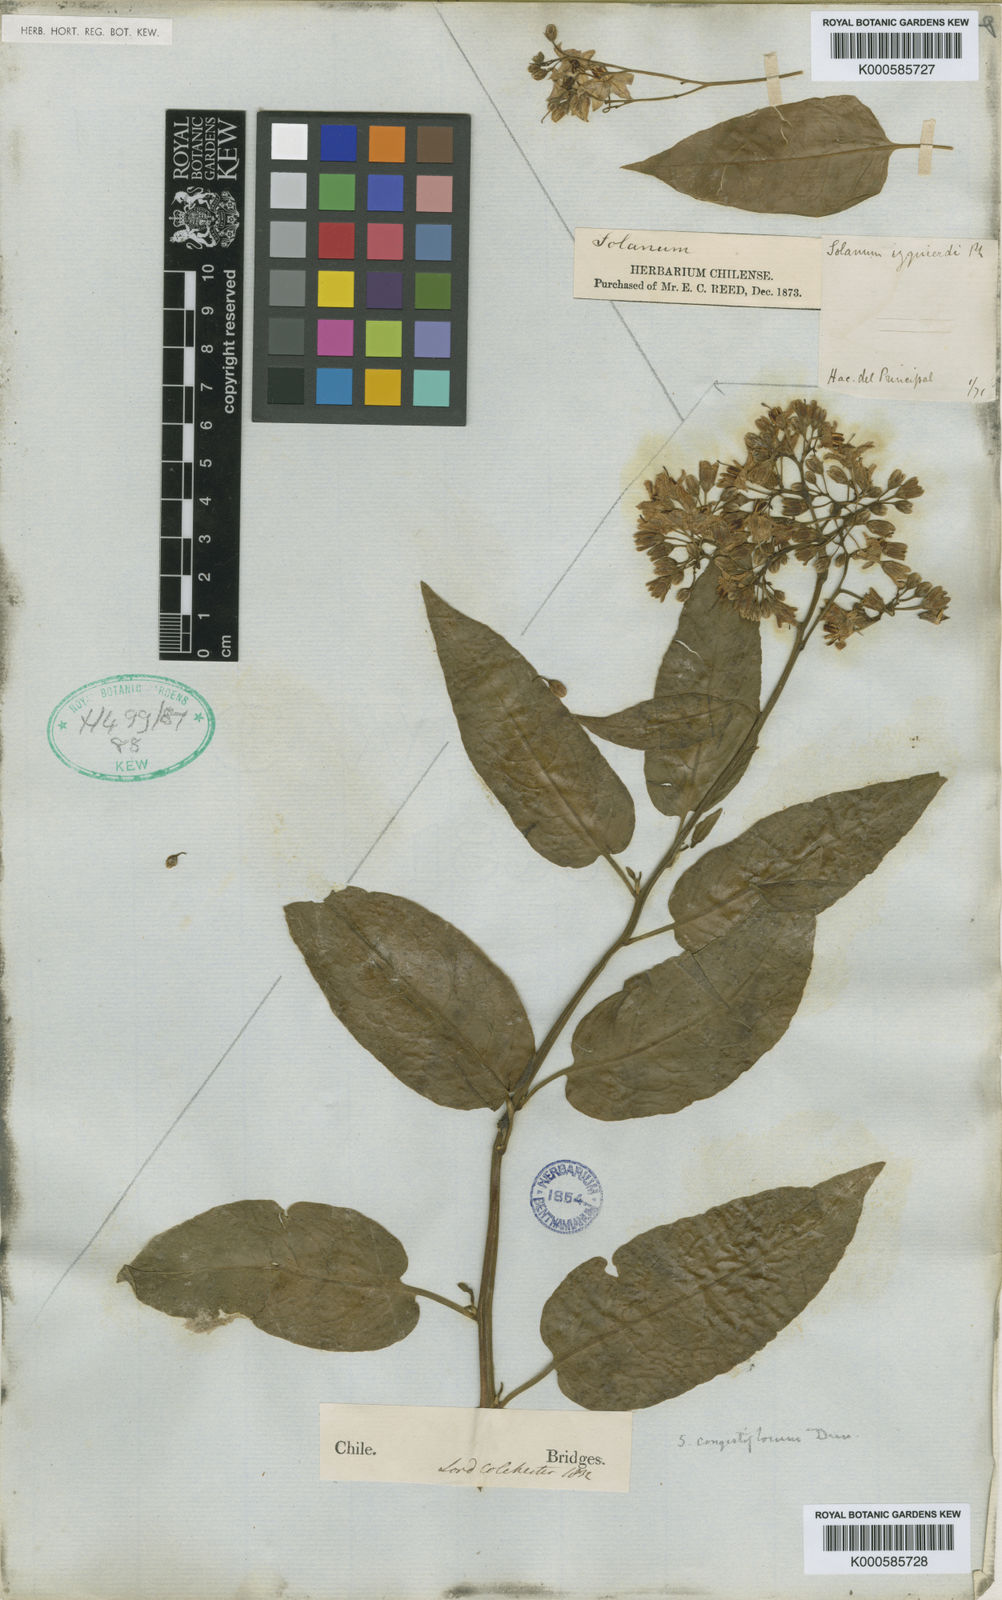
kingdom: Plantae
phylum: Tracheophyta
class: Magnoliopsida
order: Solanales
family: Solanaceae
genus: Solanum
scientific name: Solanum crispum
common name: Chilean nightshade
